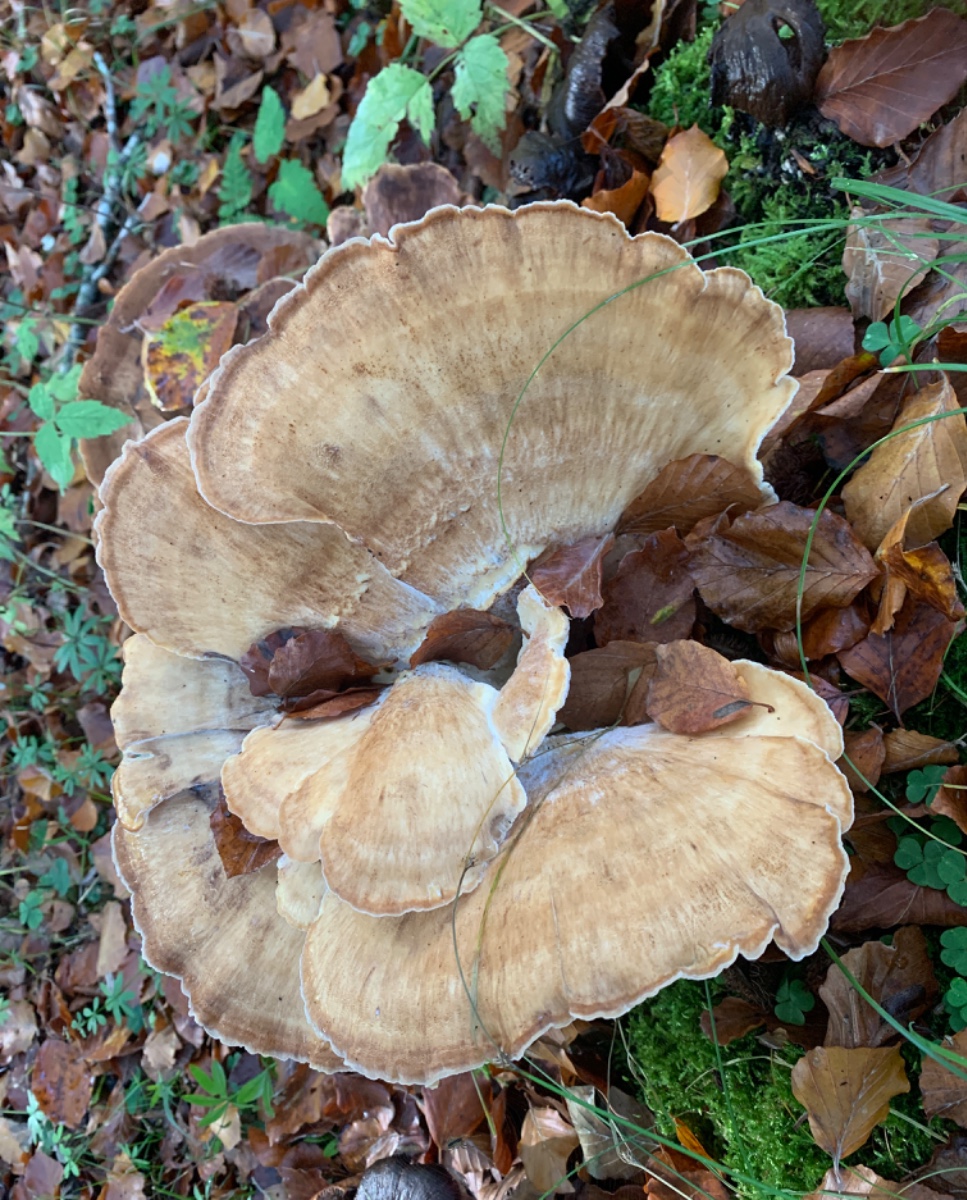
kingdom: Fungi
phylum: Basidiomycota
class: Agaricomycetes
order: Polyporales
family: Meripilaceae
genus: Meripilus
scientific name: Meripilus giganteus
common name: kæmpeporesvamp
